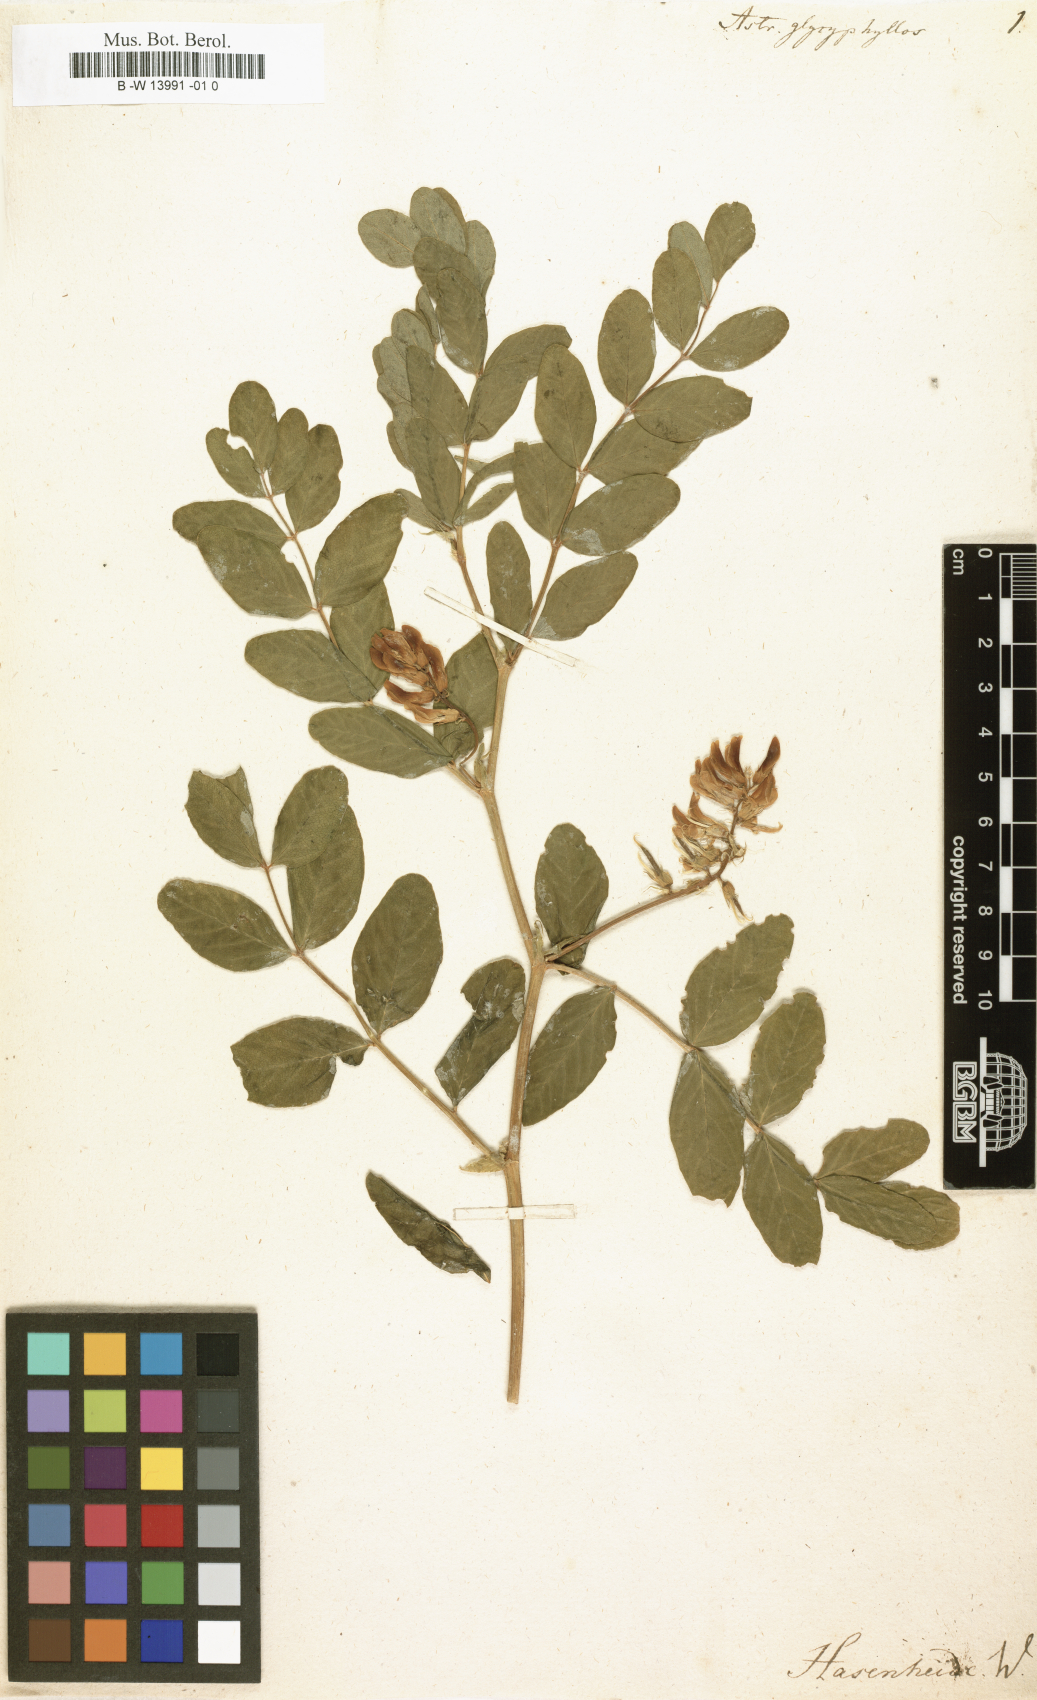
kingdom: Plantae
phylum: Tracheophyta
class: Magnoliopsida
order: Fabales
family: Fabaceae
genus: Astragalus
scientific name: Astragalus glycyphyllos
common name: Wild liquorice
